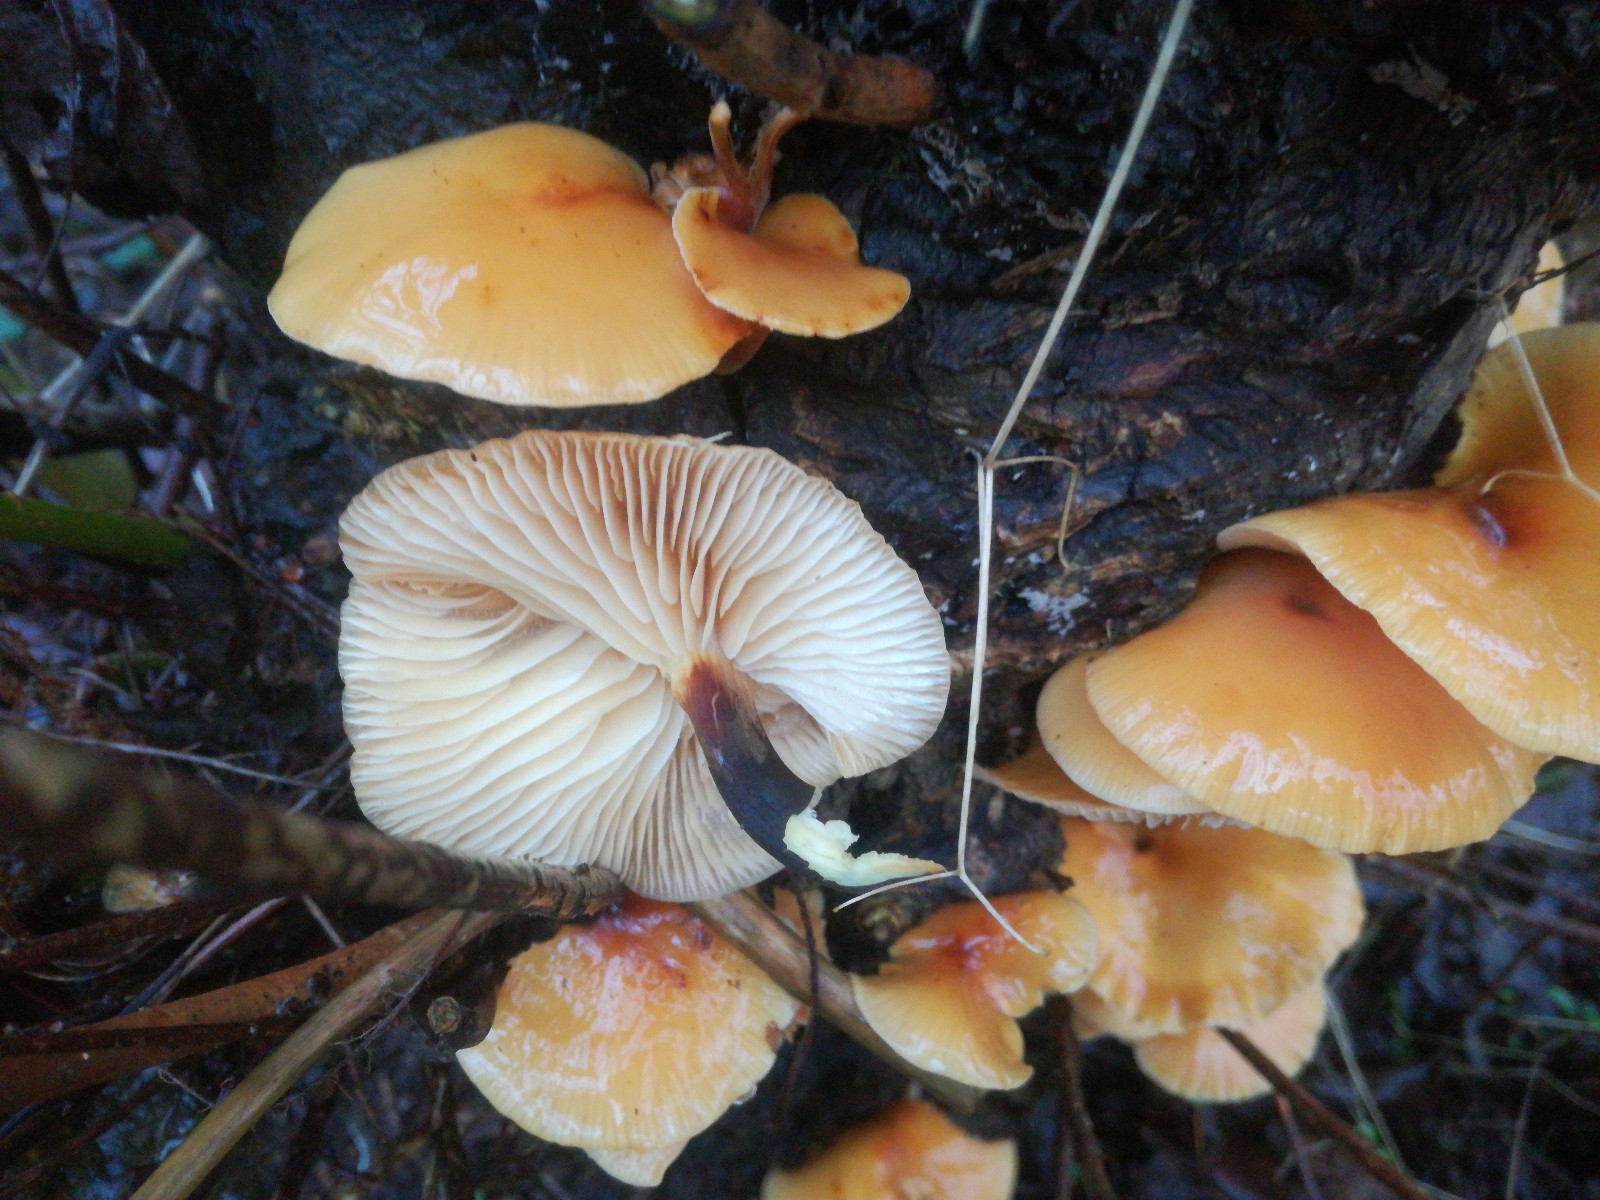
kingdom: Fungi
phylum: Basidiomycota
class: Agaricomycetes
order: Agaricales
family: Physalacriaceae
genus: Flammulina
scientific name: Flammulina
